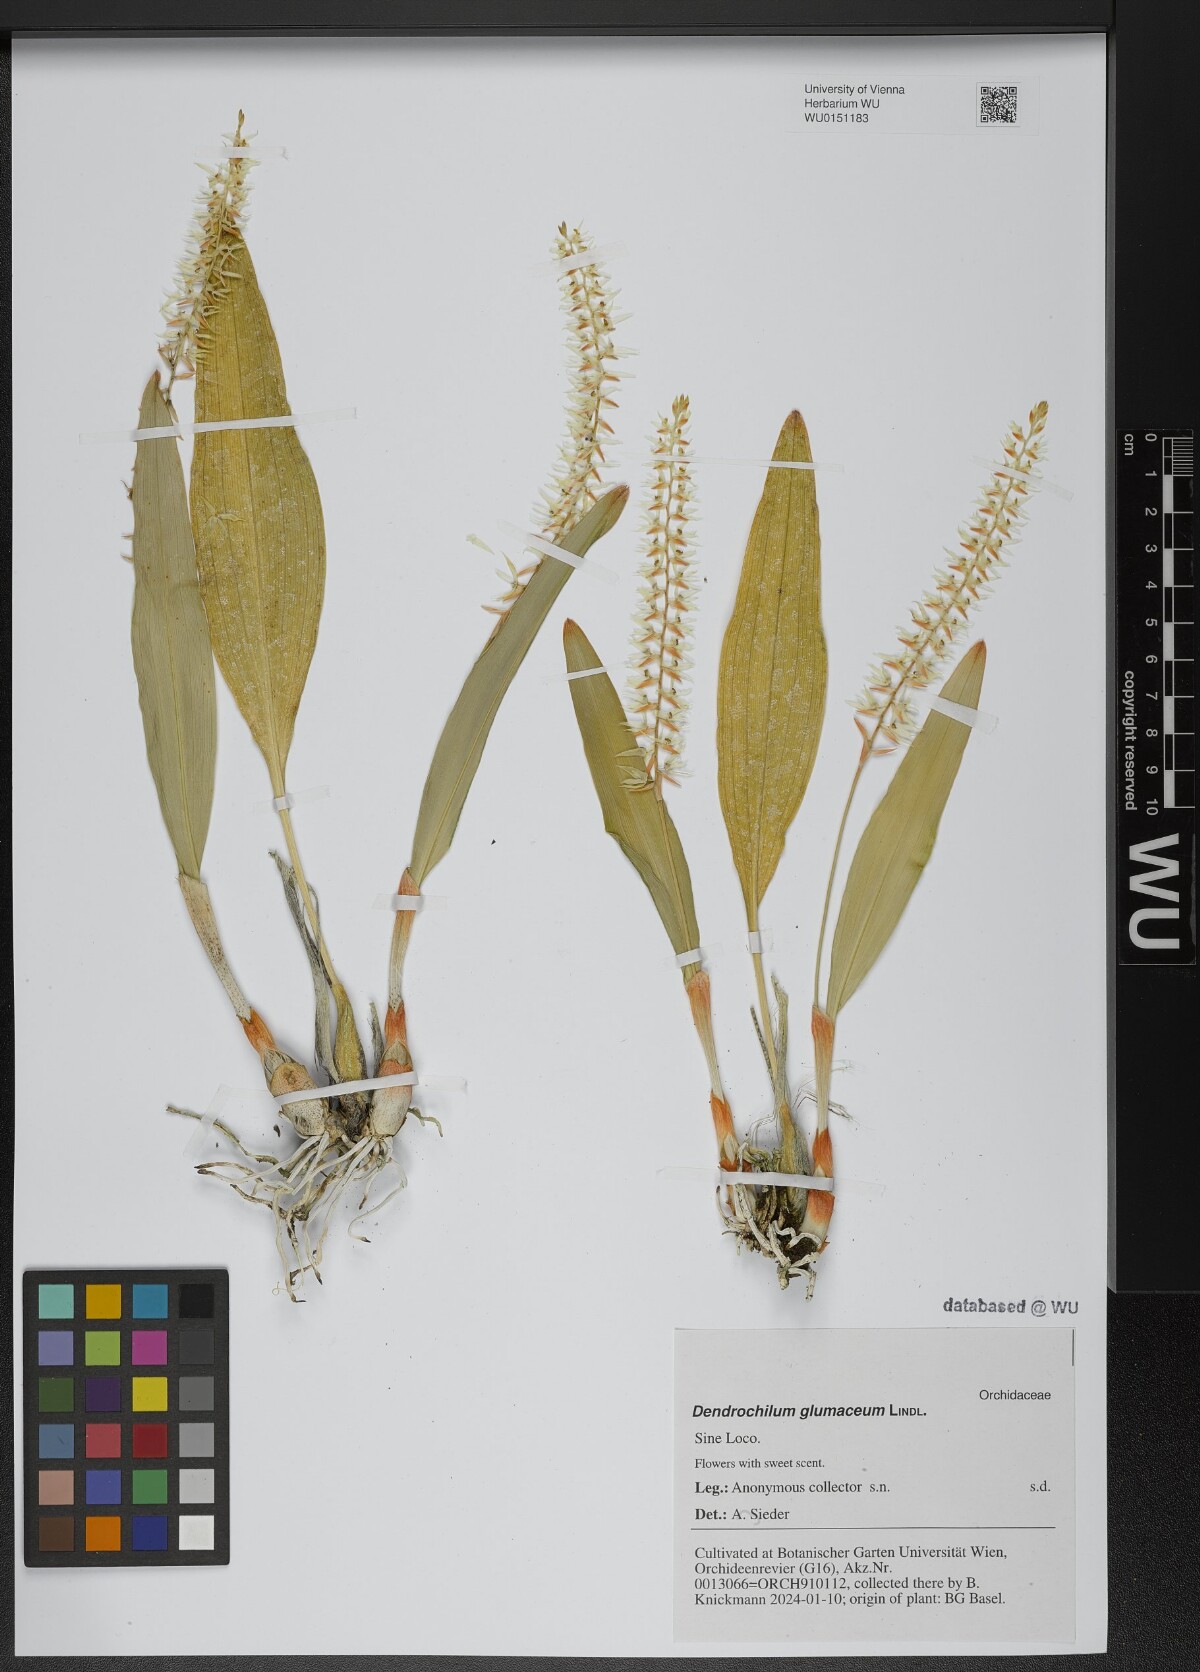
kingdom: Plantae
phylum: Tracheophyta
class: Liliopsida
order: Asparagales
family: Orchidaceae
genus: Coelogyne
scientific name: Coelogyne glumacea
